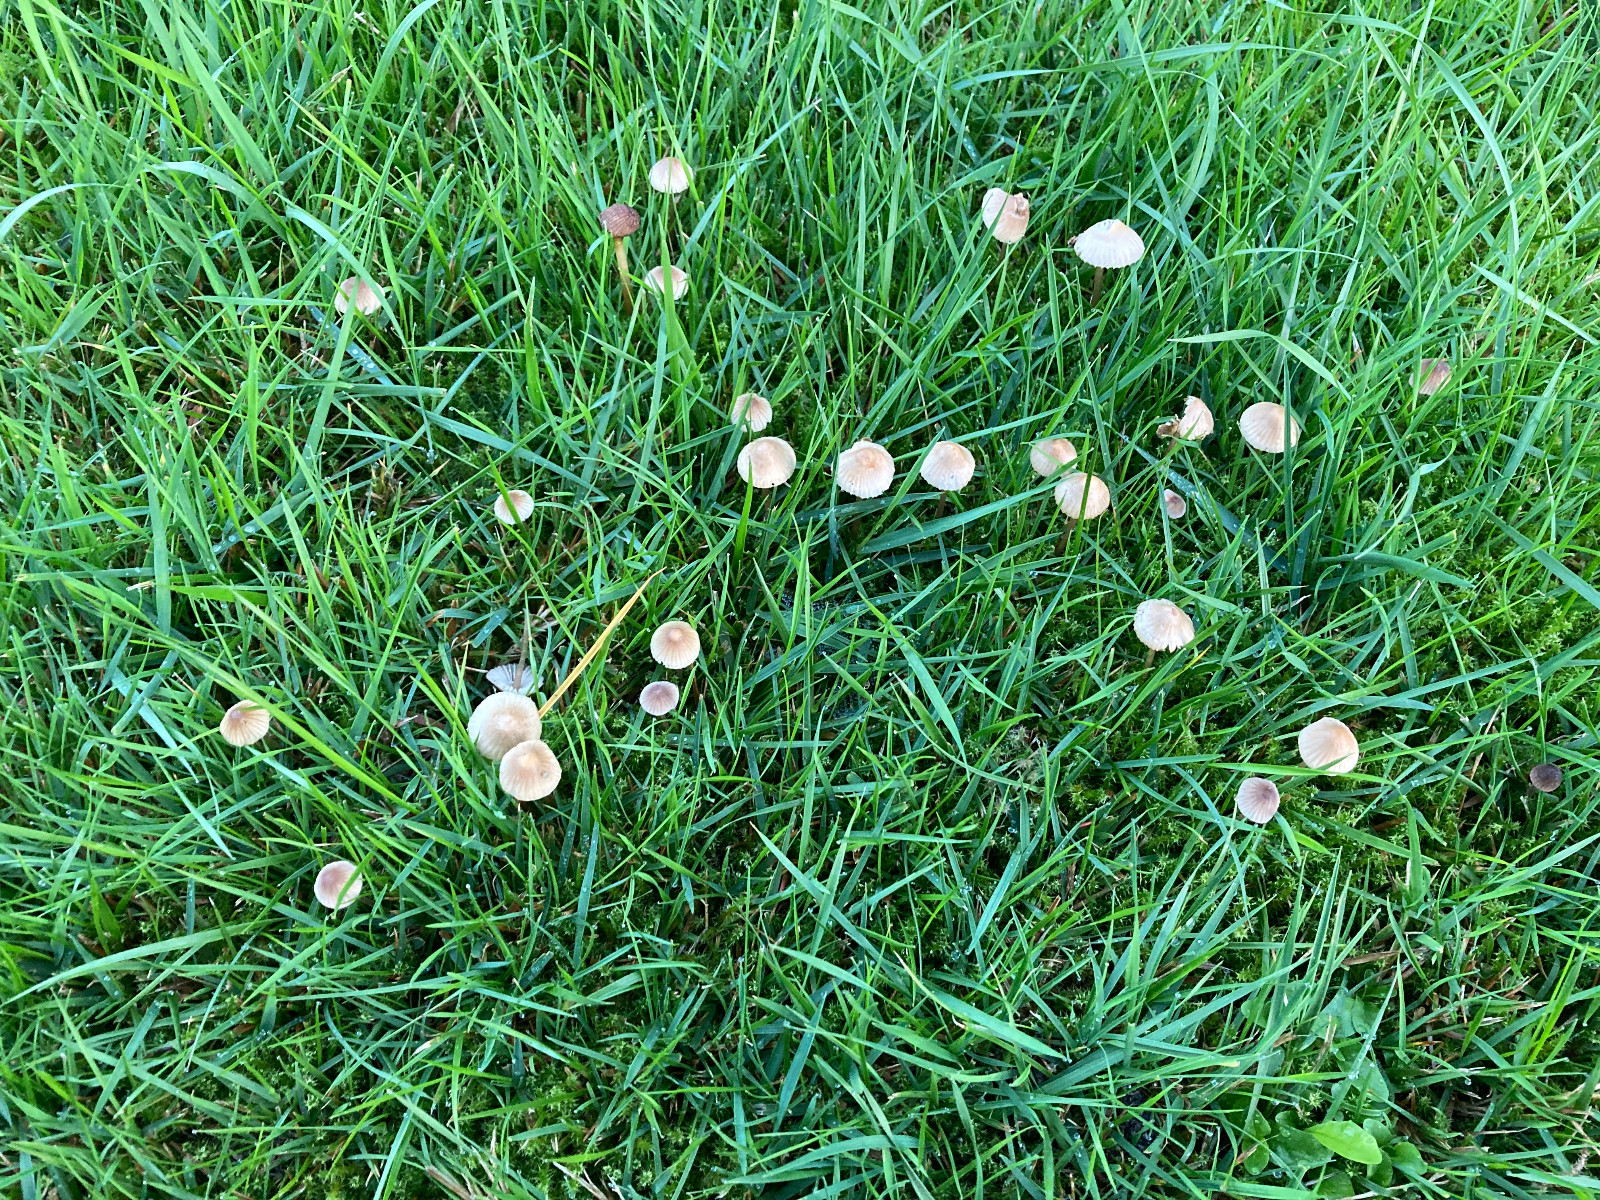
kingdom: Fungi
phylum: Basidiomycota
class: Agaricomycetes
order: Agaricales
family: Mycenaceae
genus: Mycena
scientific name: Mycena
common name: huesvamp
